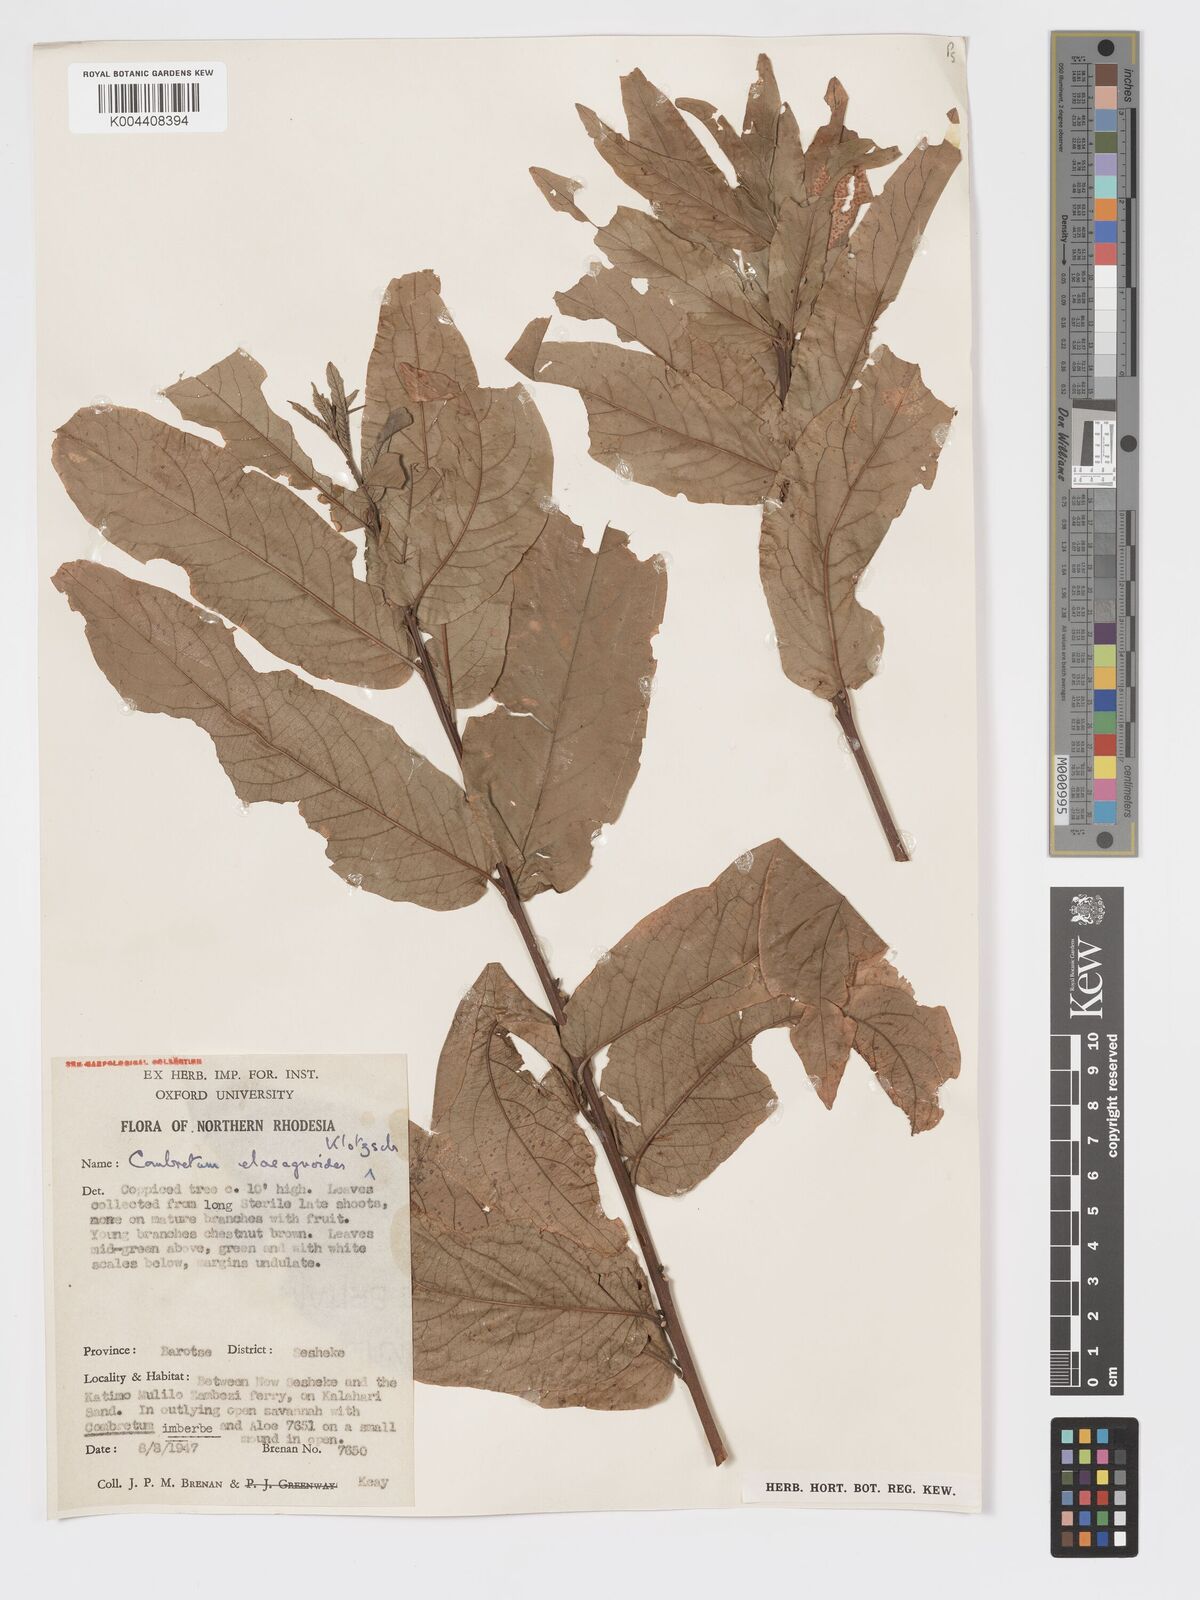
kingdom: Plantae
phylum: Tracheophyta
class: Magnoliopsida
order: Myrtales
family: Combretaceae
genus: Combretum
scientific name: Combretum elaeagnoides
